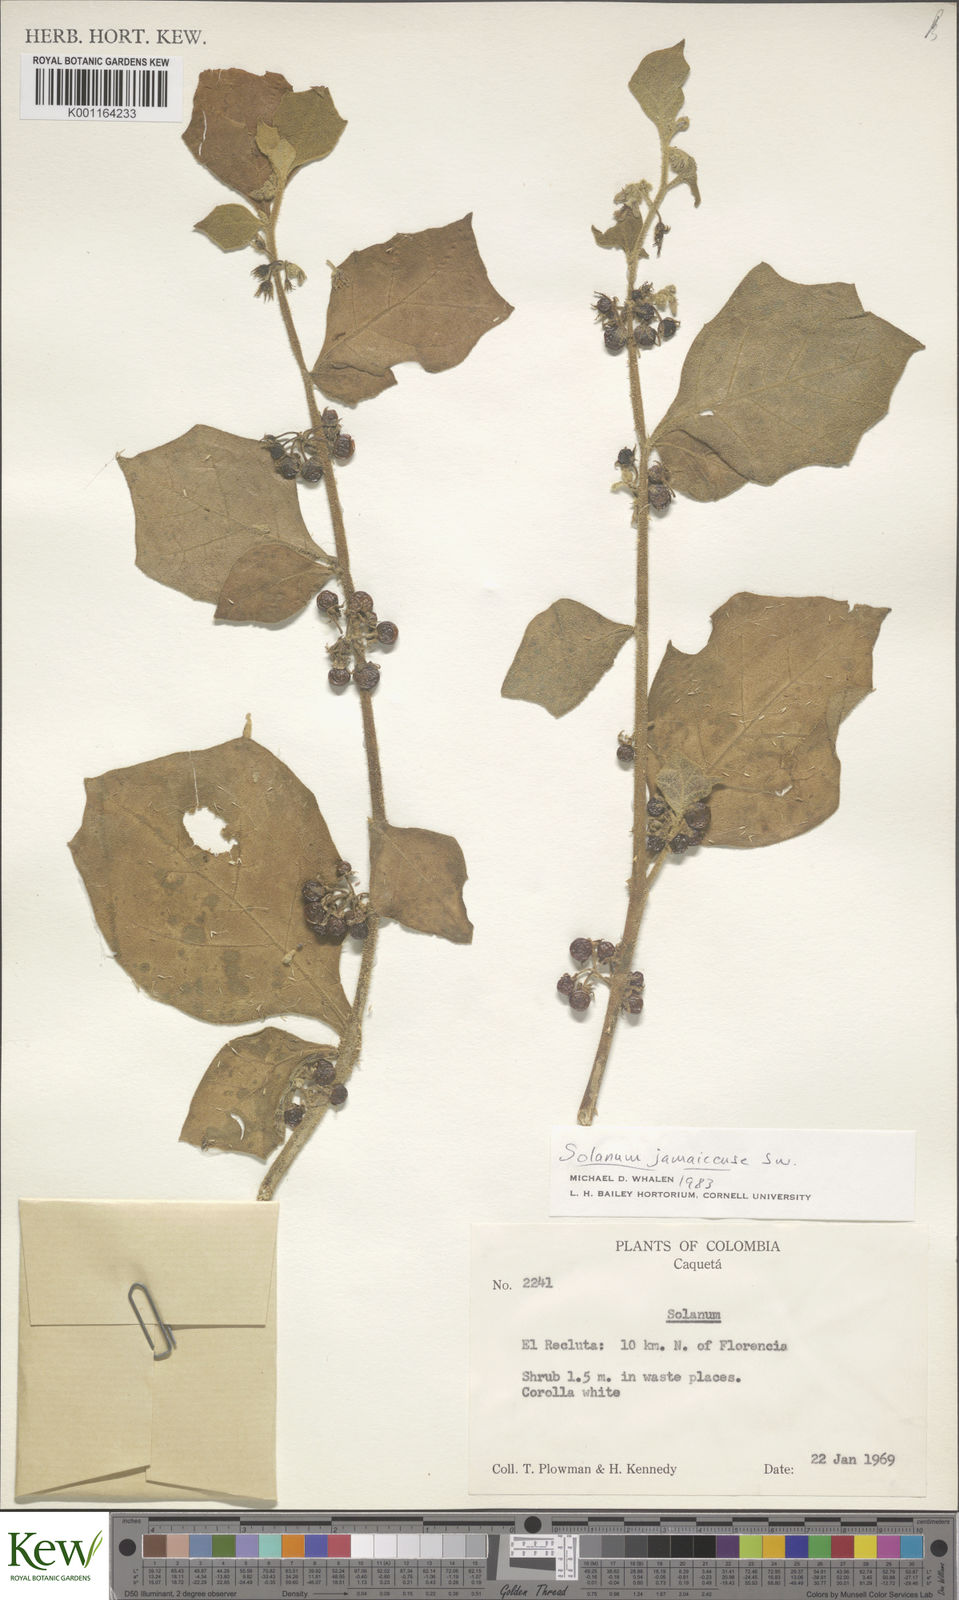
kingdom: Plantae
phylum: Tracheophyta
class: Magnoliopsida
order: Solanales
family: Solanaceae
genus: Solanum
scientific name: Solanum jamaicense
